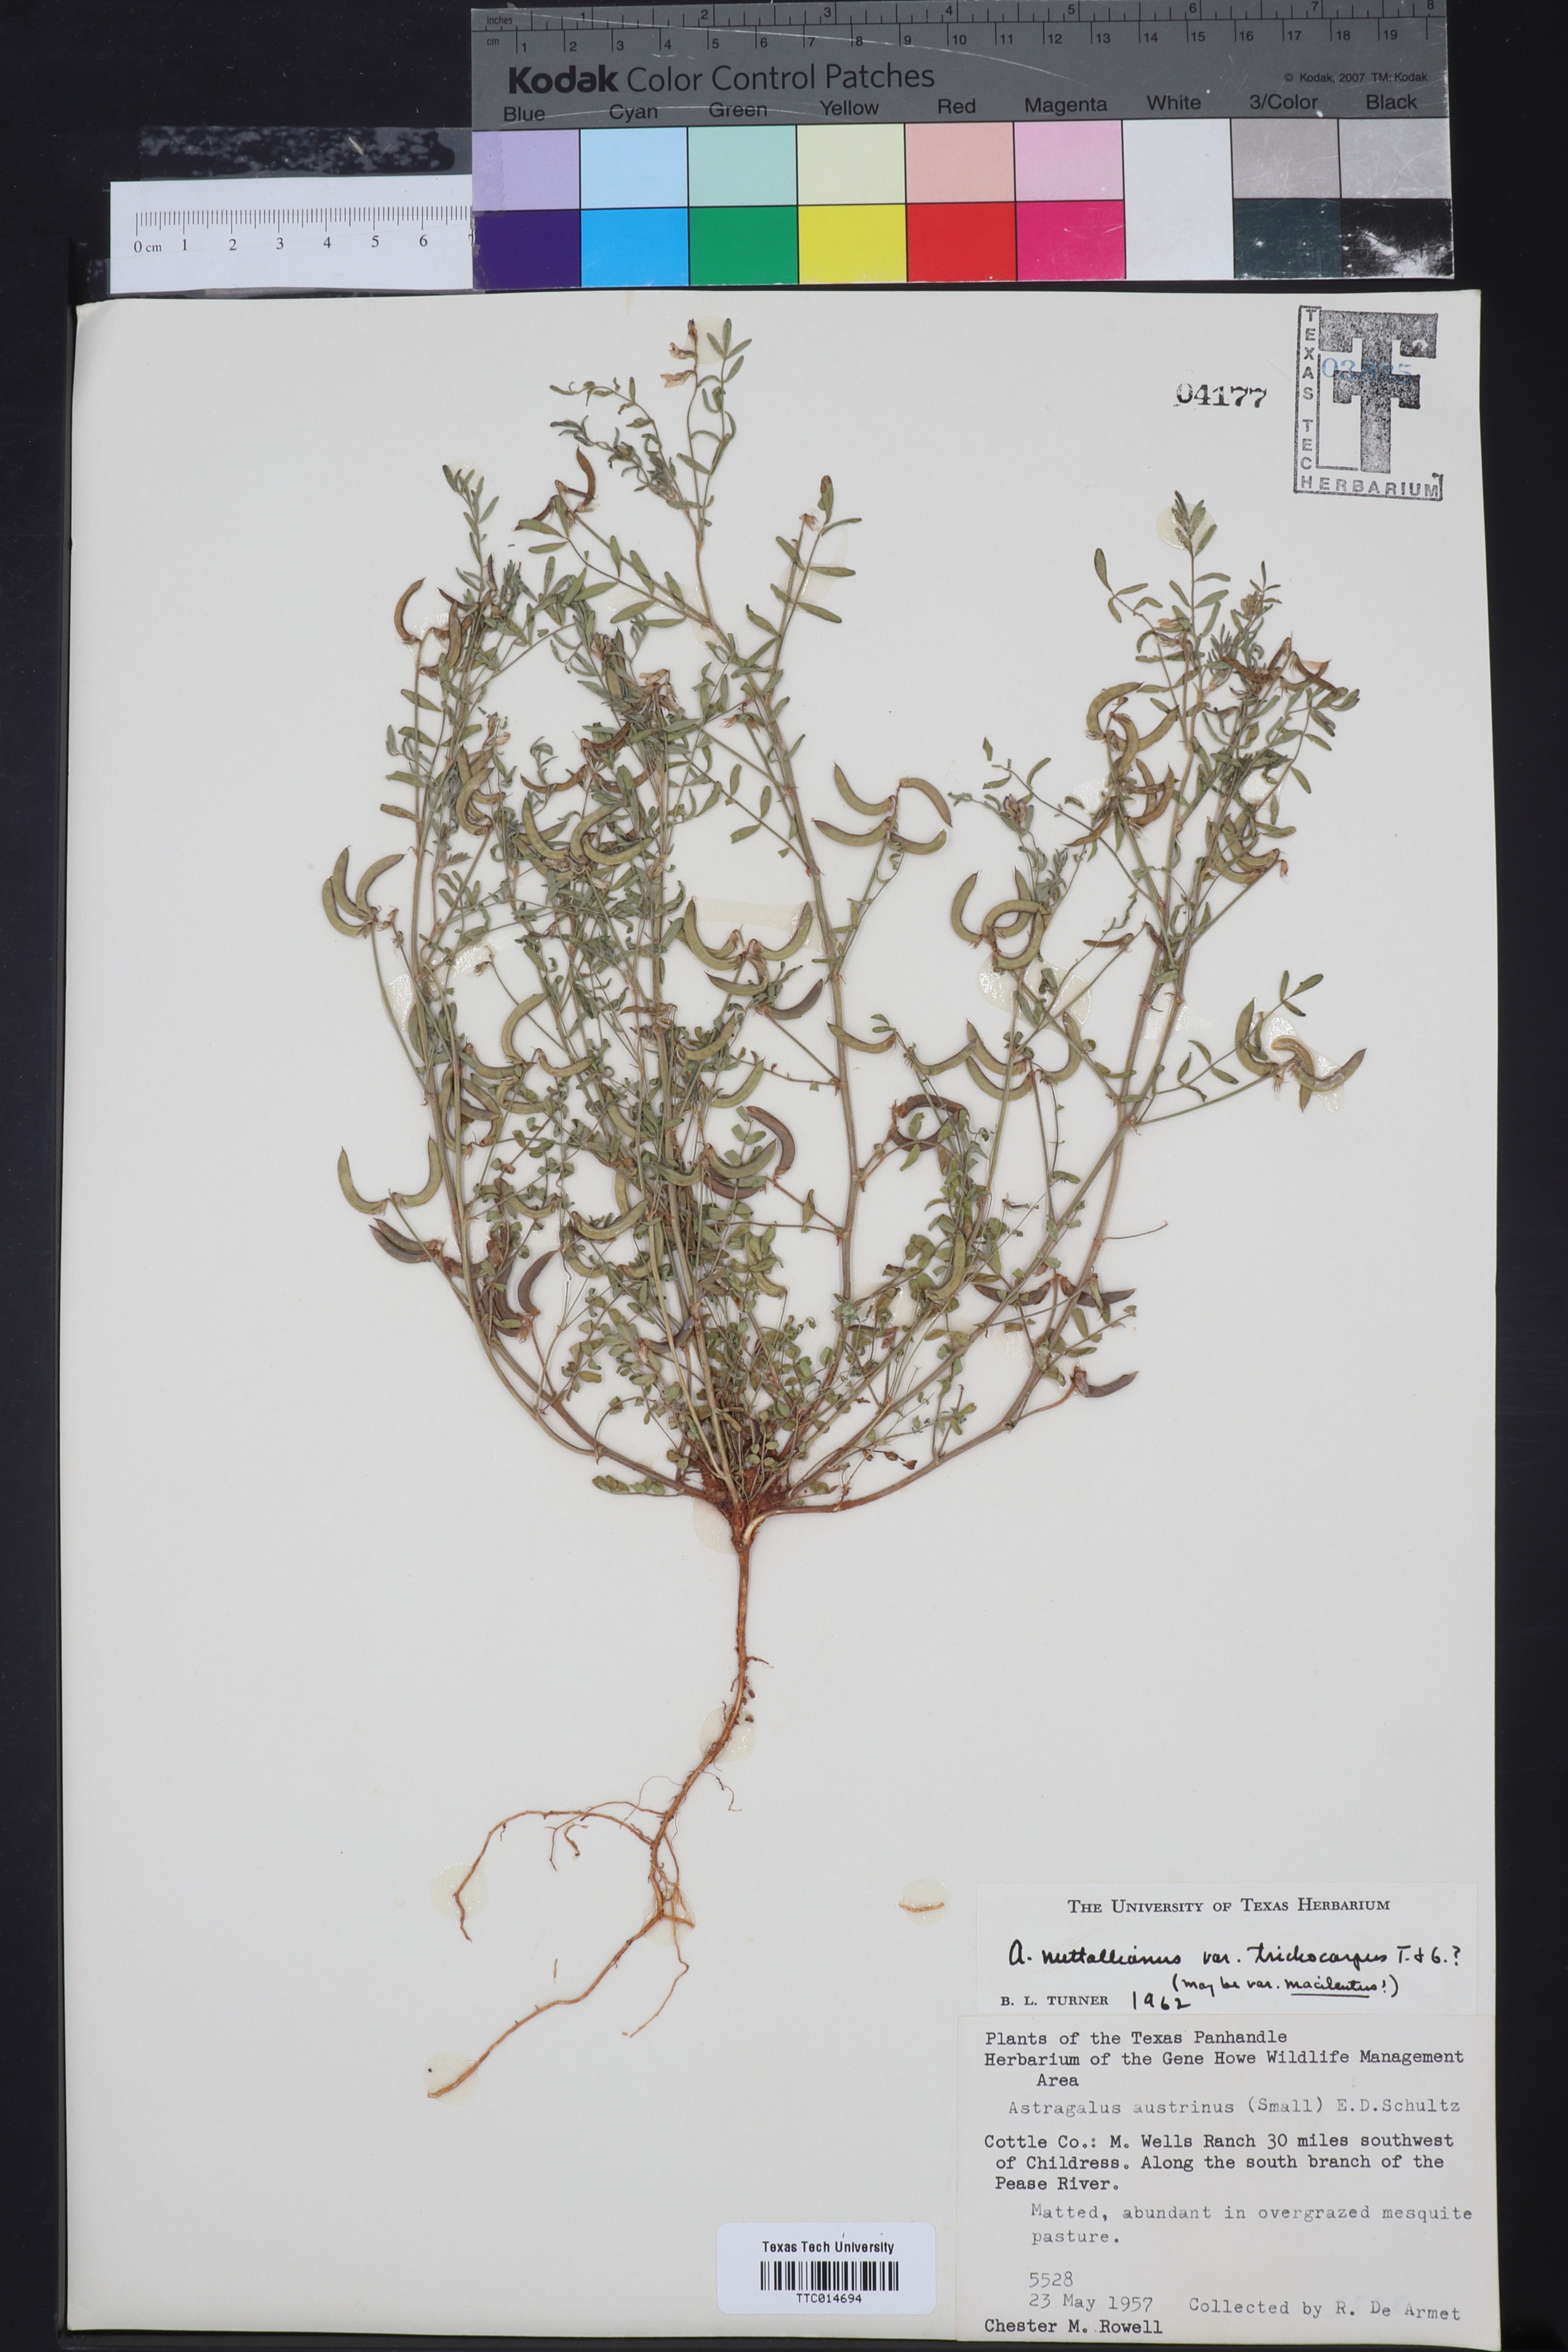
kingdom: Plantae
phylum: Tracheophyta
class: Magnoliopsida
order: Fabales
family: Fabaceae
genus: Astragalus
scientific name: Astragalus nuttallianus
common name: Smallflowered milkvetch
